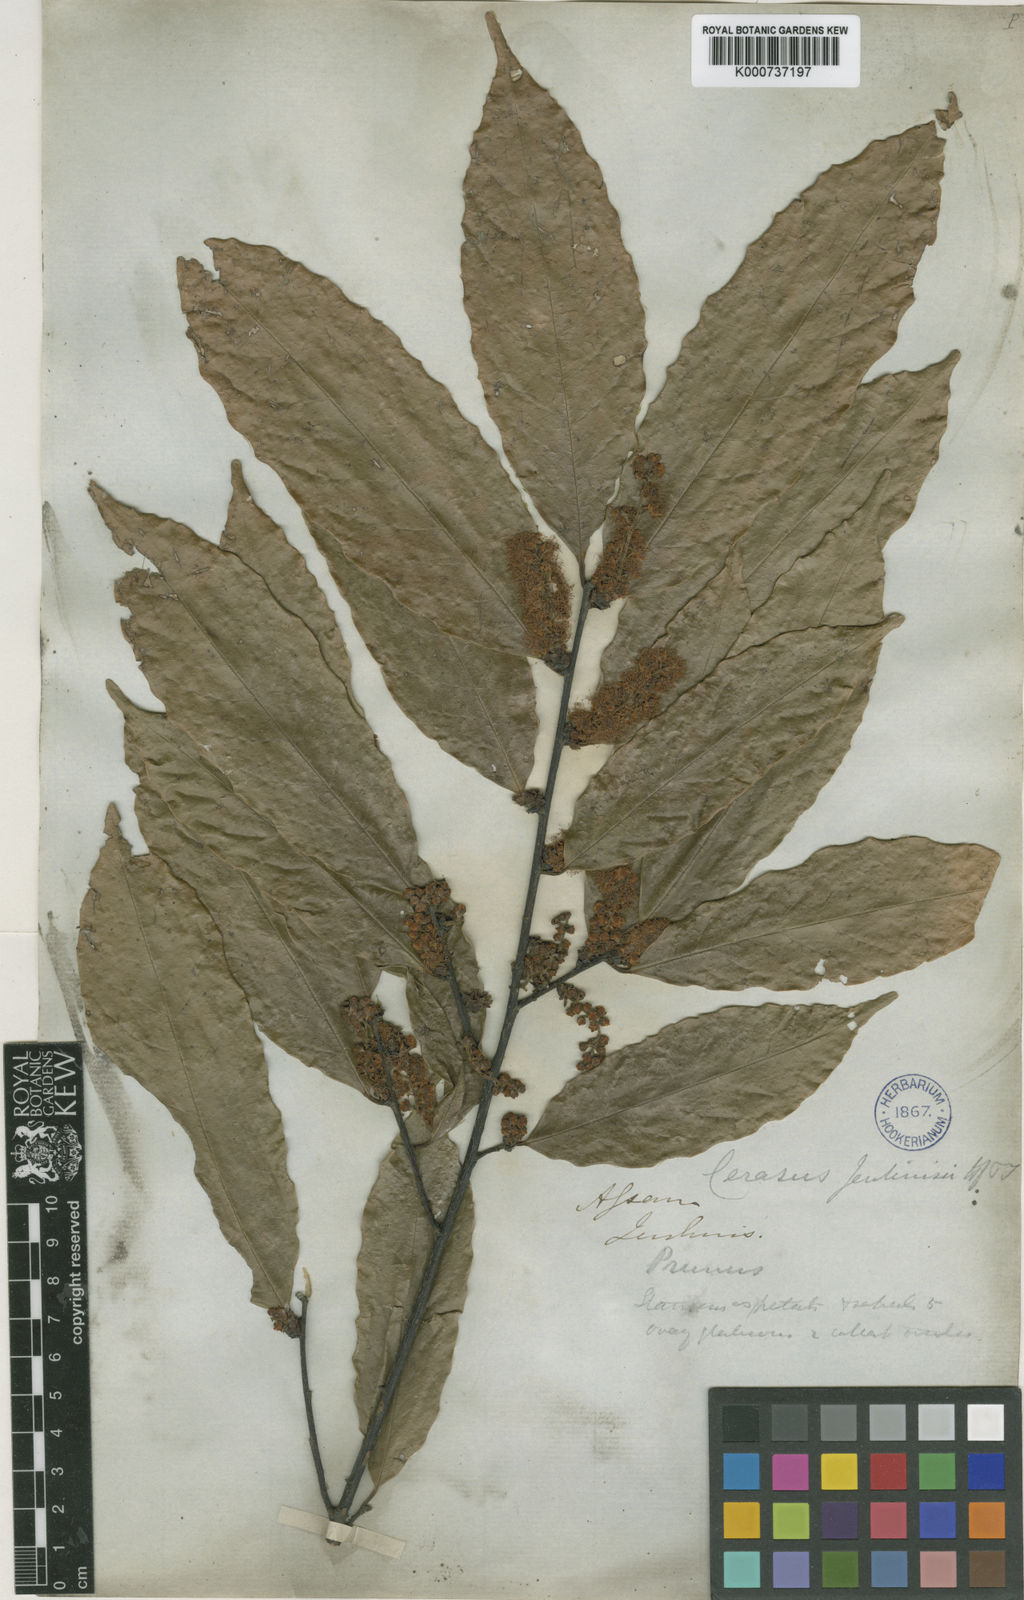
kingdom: Plantae
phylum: Tracheophyta
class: Magnoliopsida
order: Rosales
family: Rosaceae
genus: Prunus
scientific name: Prunus jenkinsii
